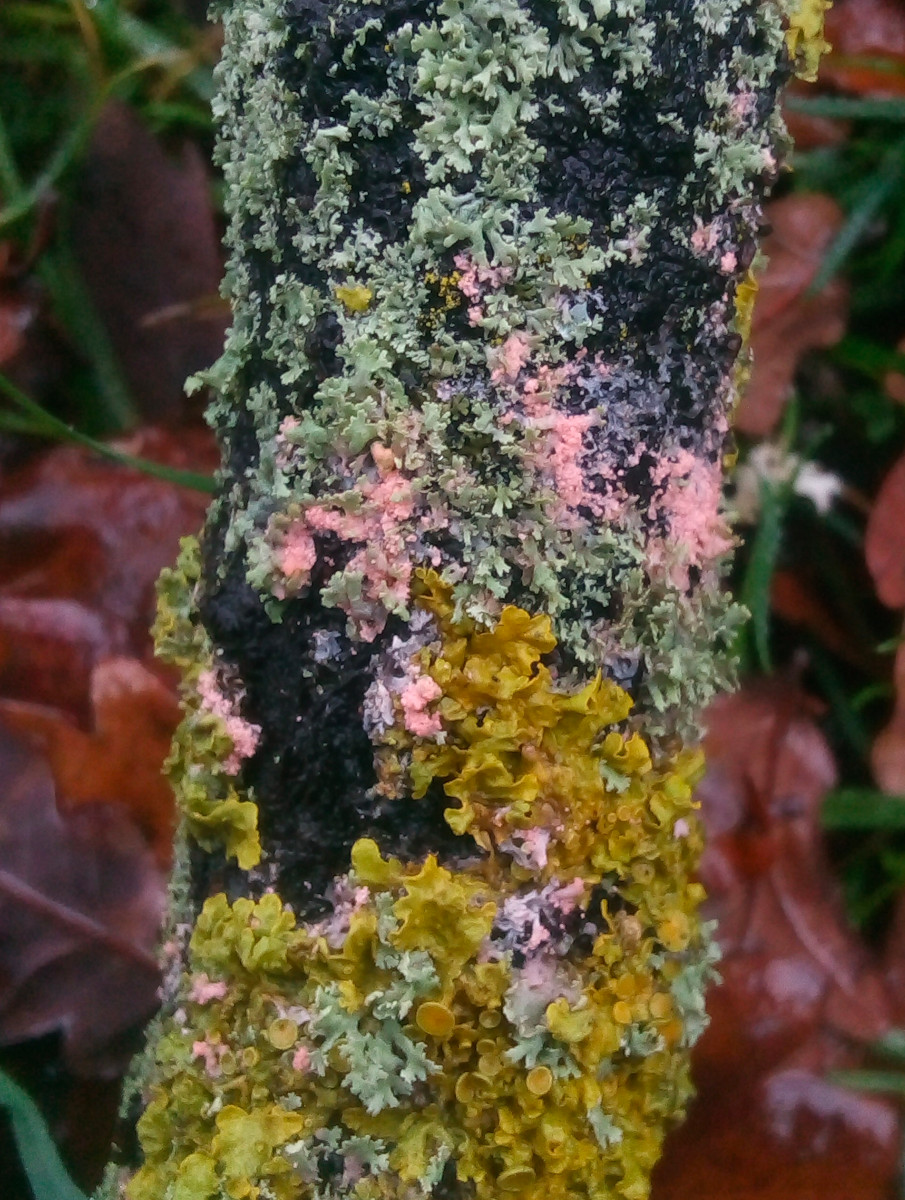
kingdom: Fungi
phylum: Ascomycota
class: Sordariomycetes
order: Hypocreales
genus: Illosporiopsis
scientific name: Illosporiopsis christiansenii
